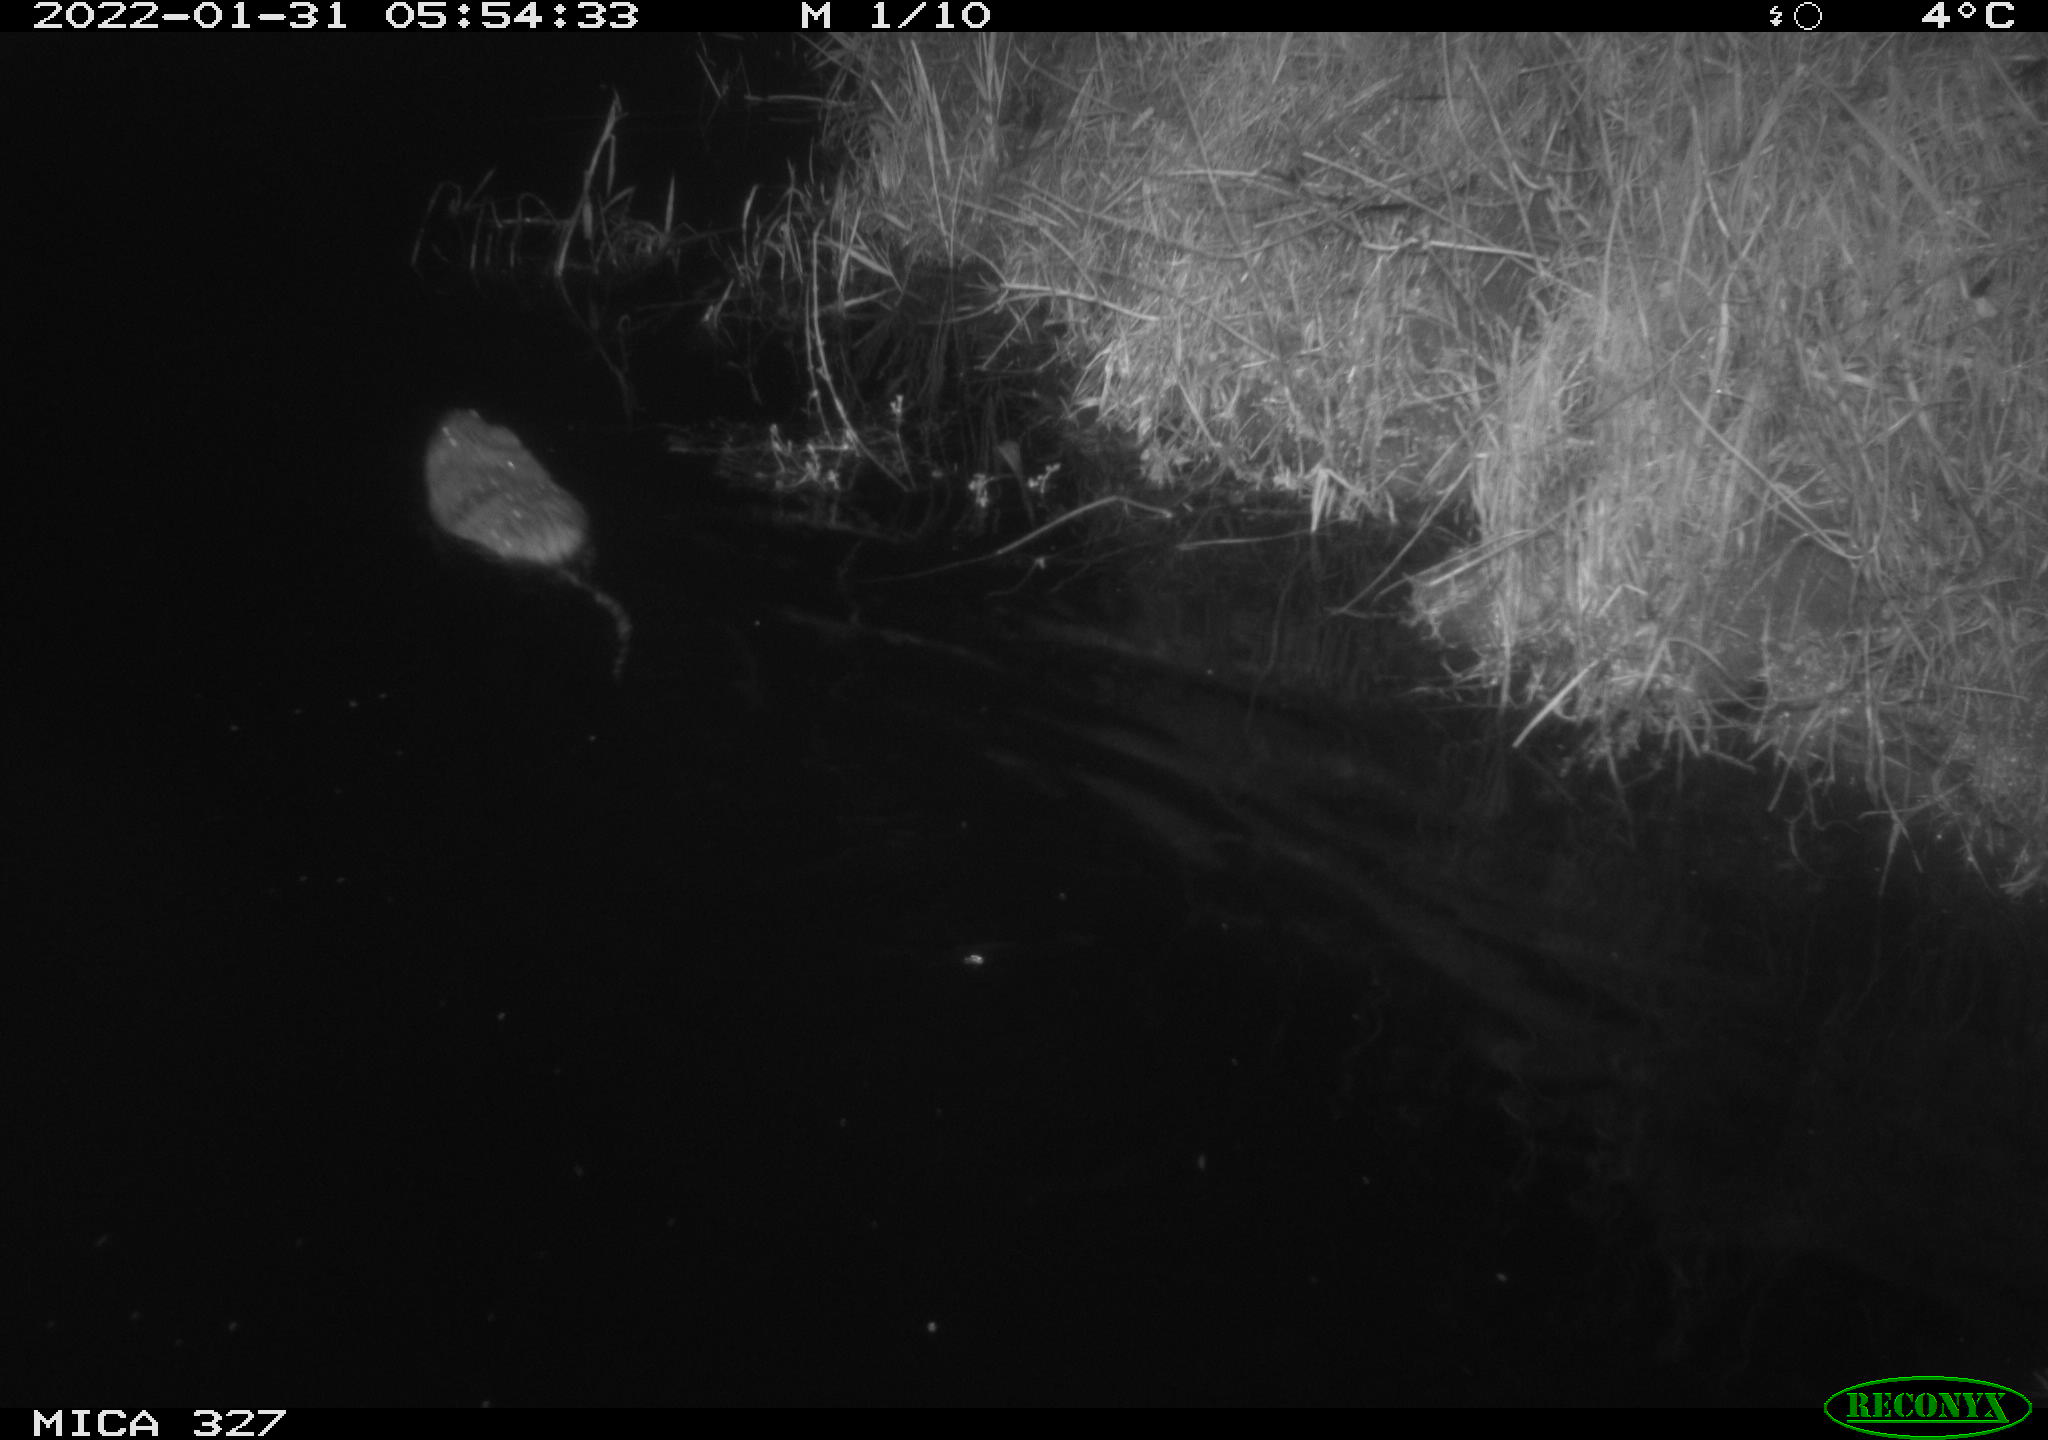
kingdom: Animalia
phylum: Chordata
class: Mammalia
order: Rodentia
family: Cricetidae
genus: Ondatra
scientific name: Ondatra zibethicus
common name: Muskrat
